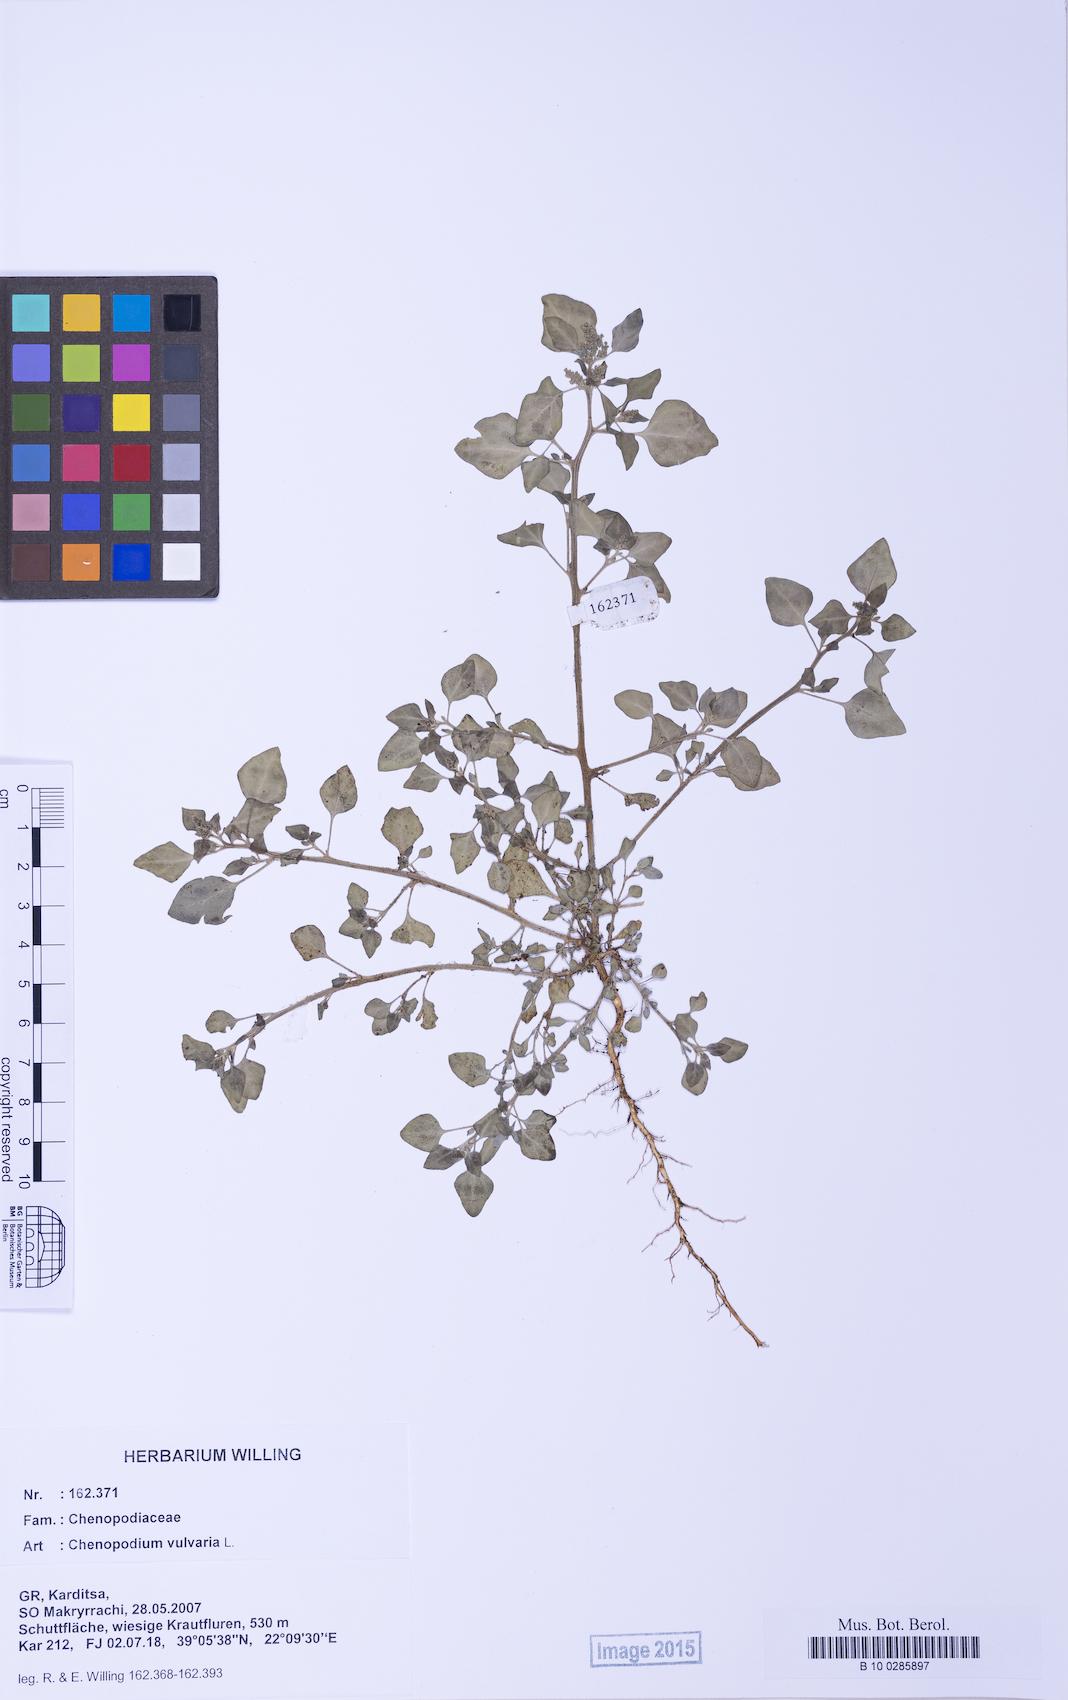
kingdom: Plantae
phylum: Tracheophyta
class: Magnoliopsida
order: Caryophyllales
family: Amaranthaceae
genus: Chenopodium
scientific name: Chenopodium vulvaria
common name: Stinking goosefoot
